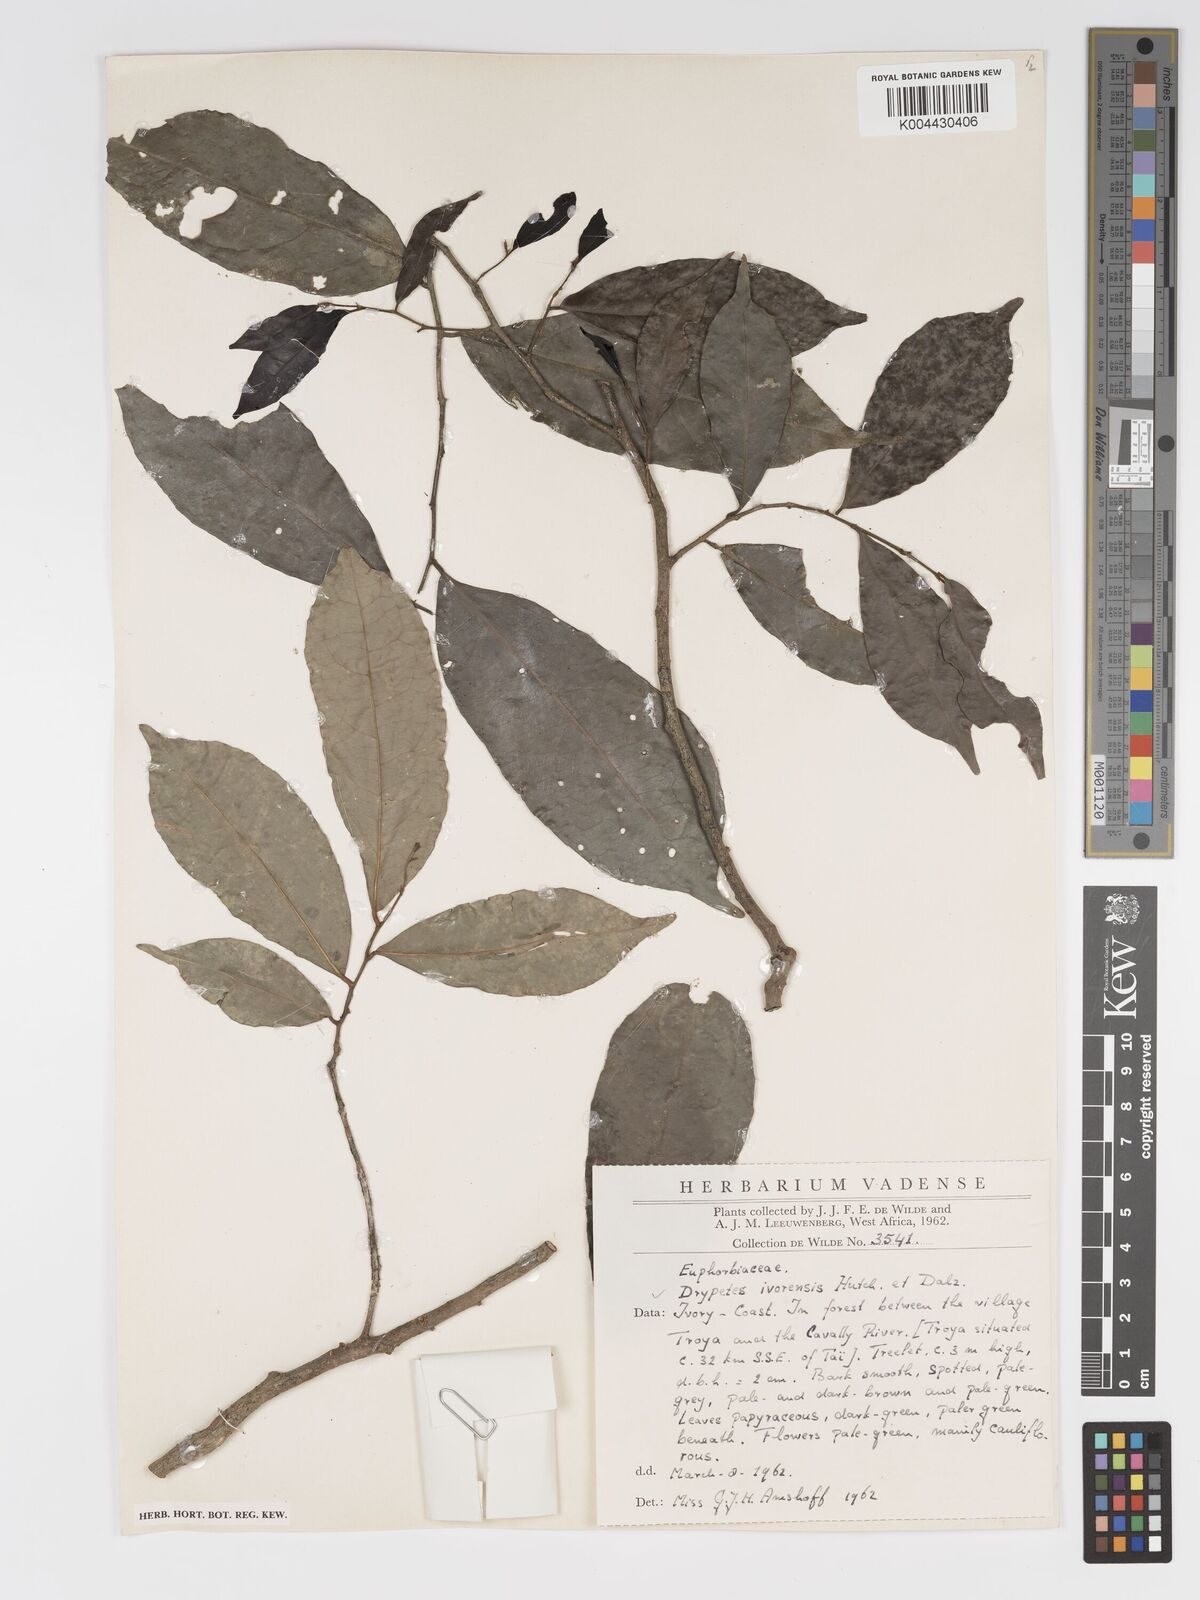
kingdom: Plantae
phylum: Tracheophyta
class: Magnoliopsida
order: Malpighiales
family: Putranjivaceae
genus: Drypetes
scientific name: Drypetes ivorensis
